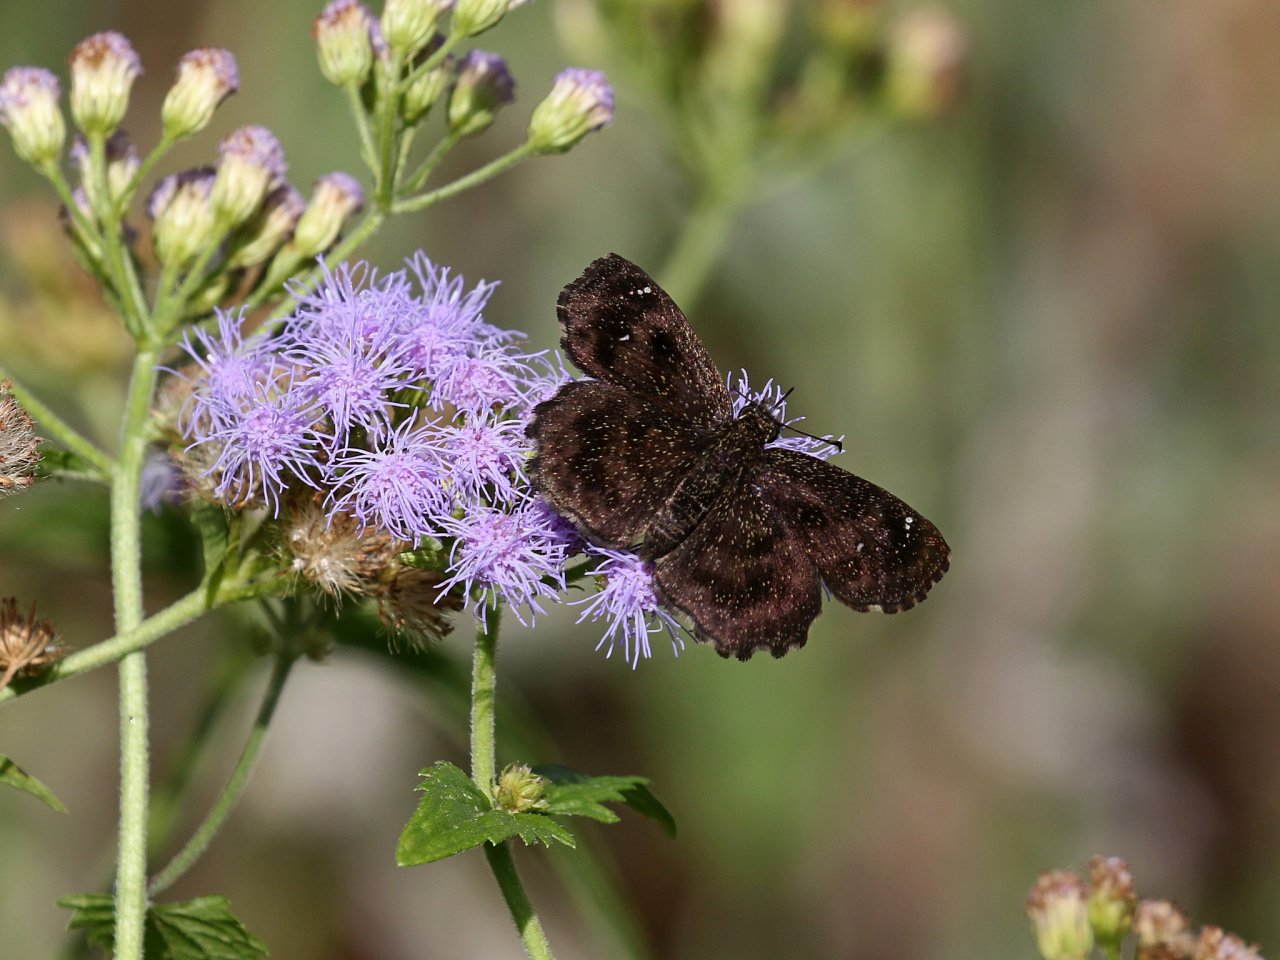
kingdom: Animalia
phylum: Arthropoda
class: Insecta
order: Lepidoptera
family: Hesperiidae
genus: Staphylus
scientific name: Staphylus mazans
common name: Hayhurst's Scallopwing
